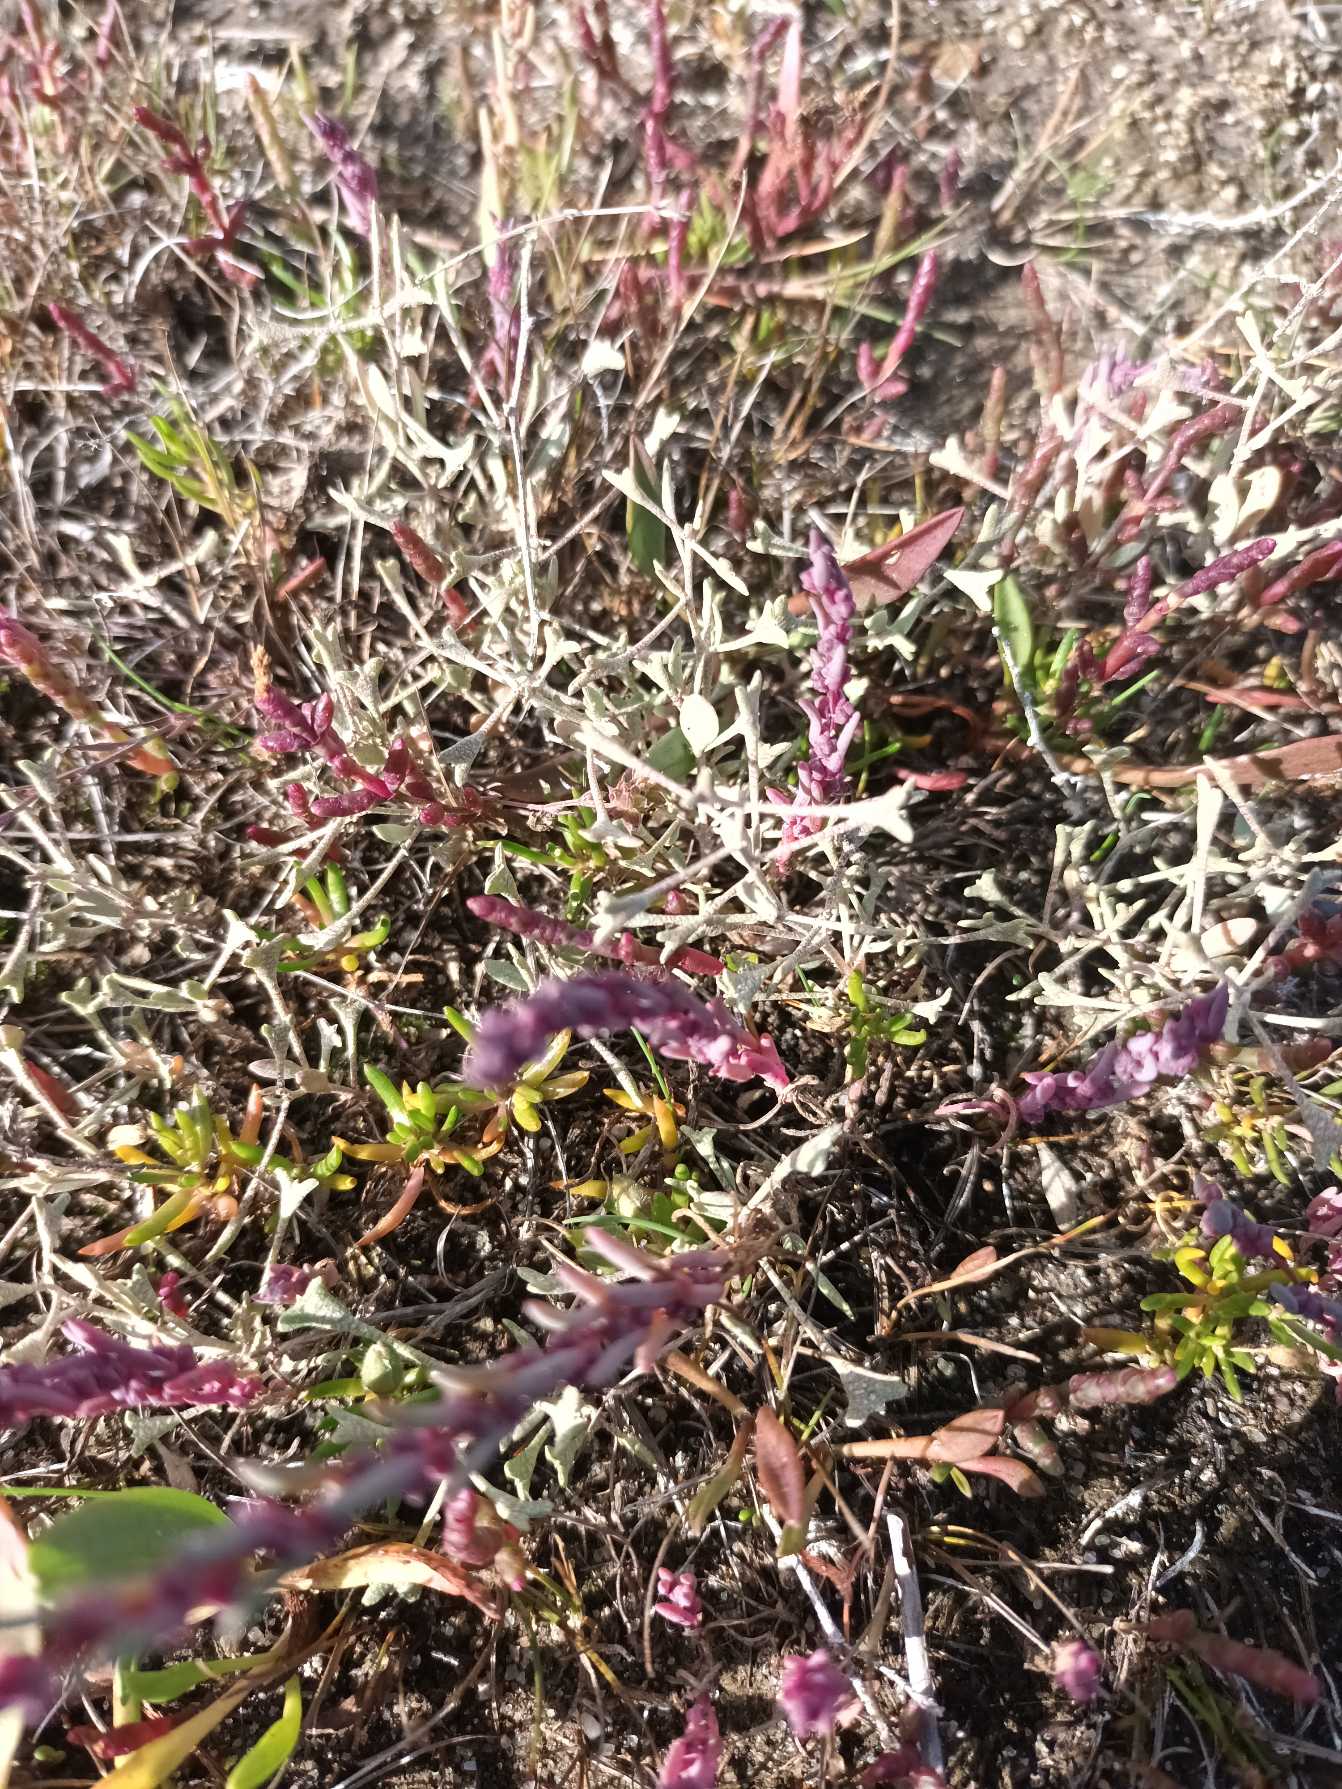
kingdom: Plantae
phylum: Tracheophyta
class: Magnoliopsida
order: Caryophyllales
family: Amaranthaceae
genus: Halimione
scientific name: Halimione pedunculata
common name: Stilket kilebæger
